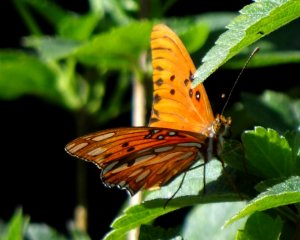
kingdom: Animalia
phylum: Arthropoda
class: Insecta
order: Lepidoptera
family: Nymphalidae
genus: Dione
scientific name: Dione vanillae
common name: Gulf Fritillary
